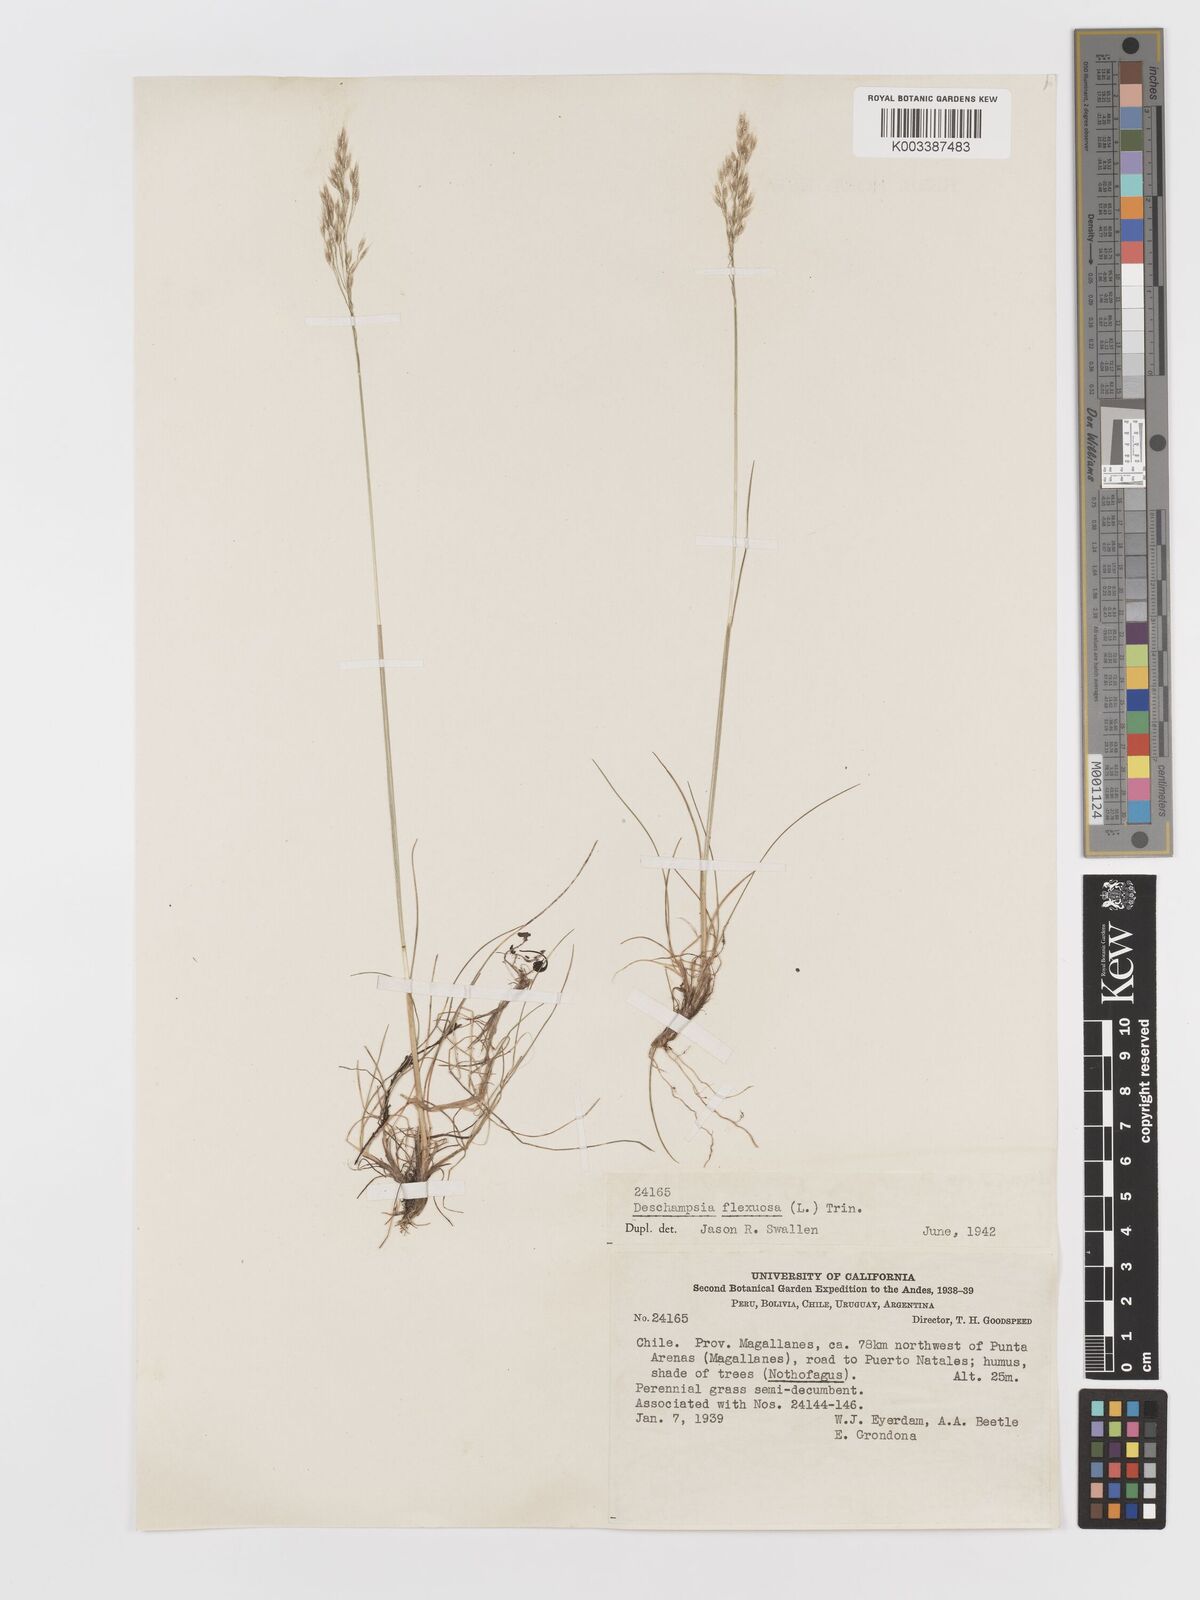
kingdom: Plantae
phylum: Tracheophyta
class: Liliopsida
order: Poales
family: Poaceae
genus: Avenella
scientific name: Avenella flexuosa
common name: Wavy hairgrass
